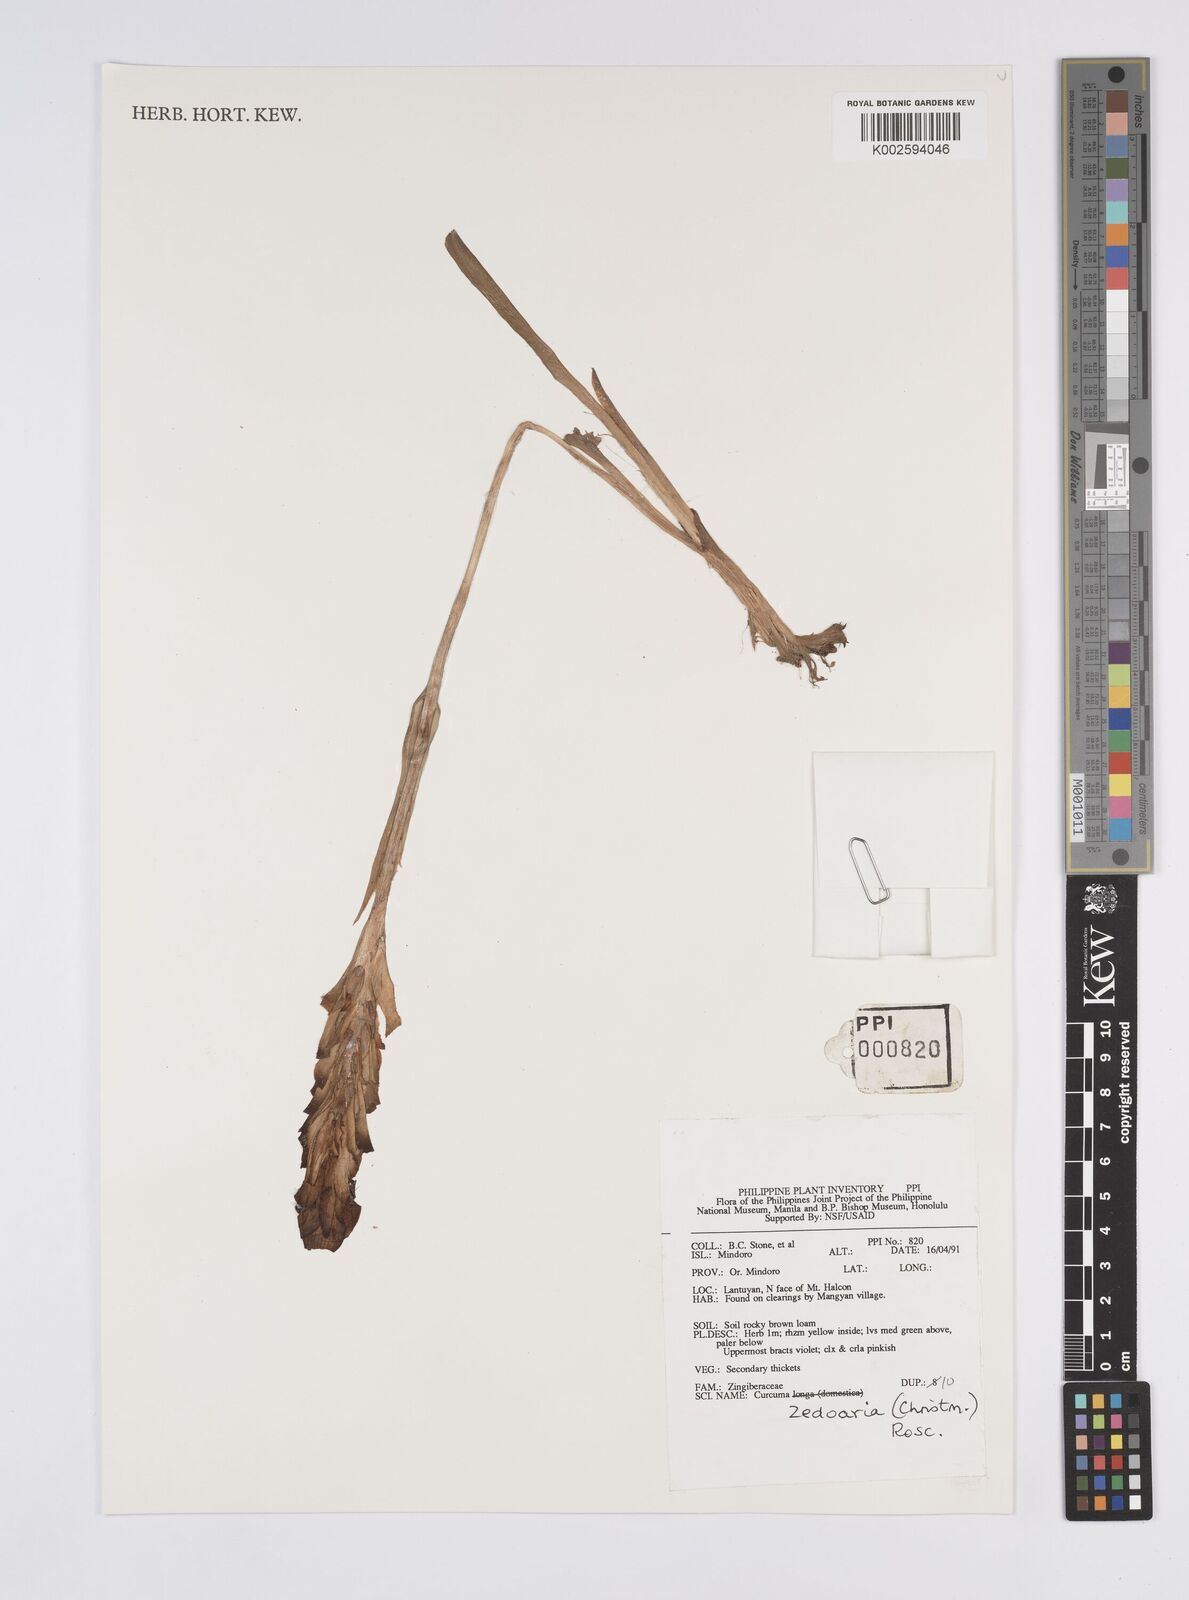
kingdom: Plantae
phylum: Tracheophyta
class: Liliopsida
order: Zingiberales
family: Zingiberaceae
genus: Curcuma
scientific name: Curcuma
